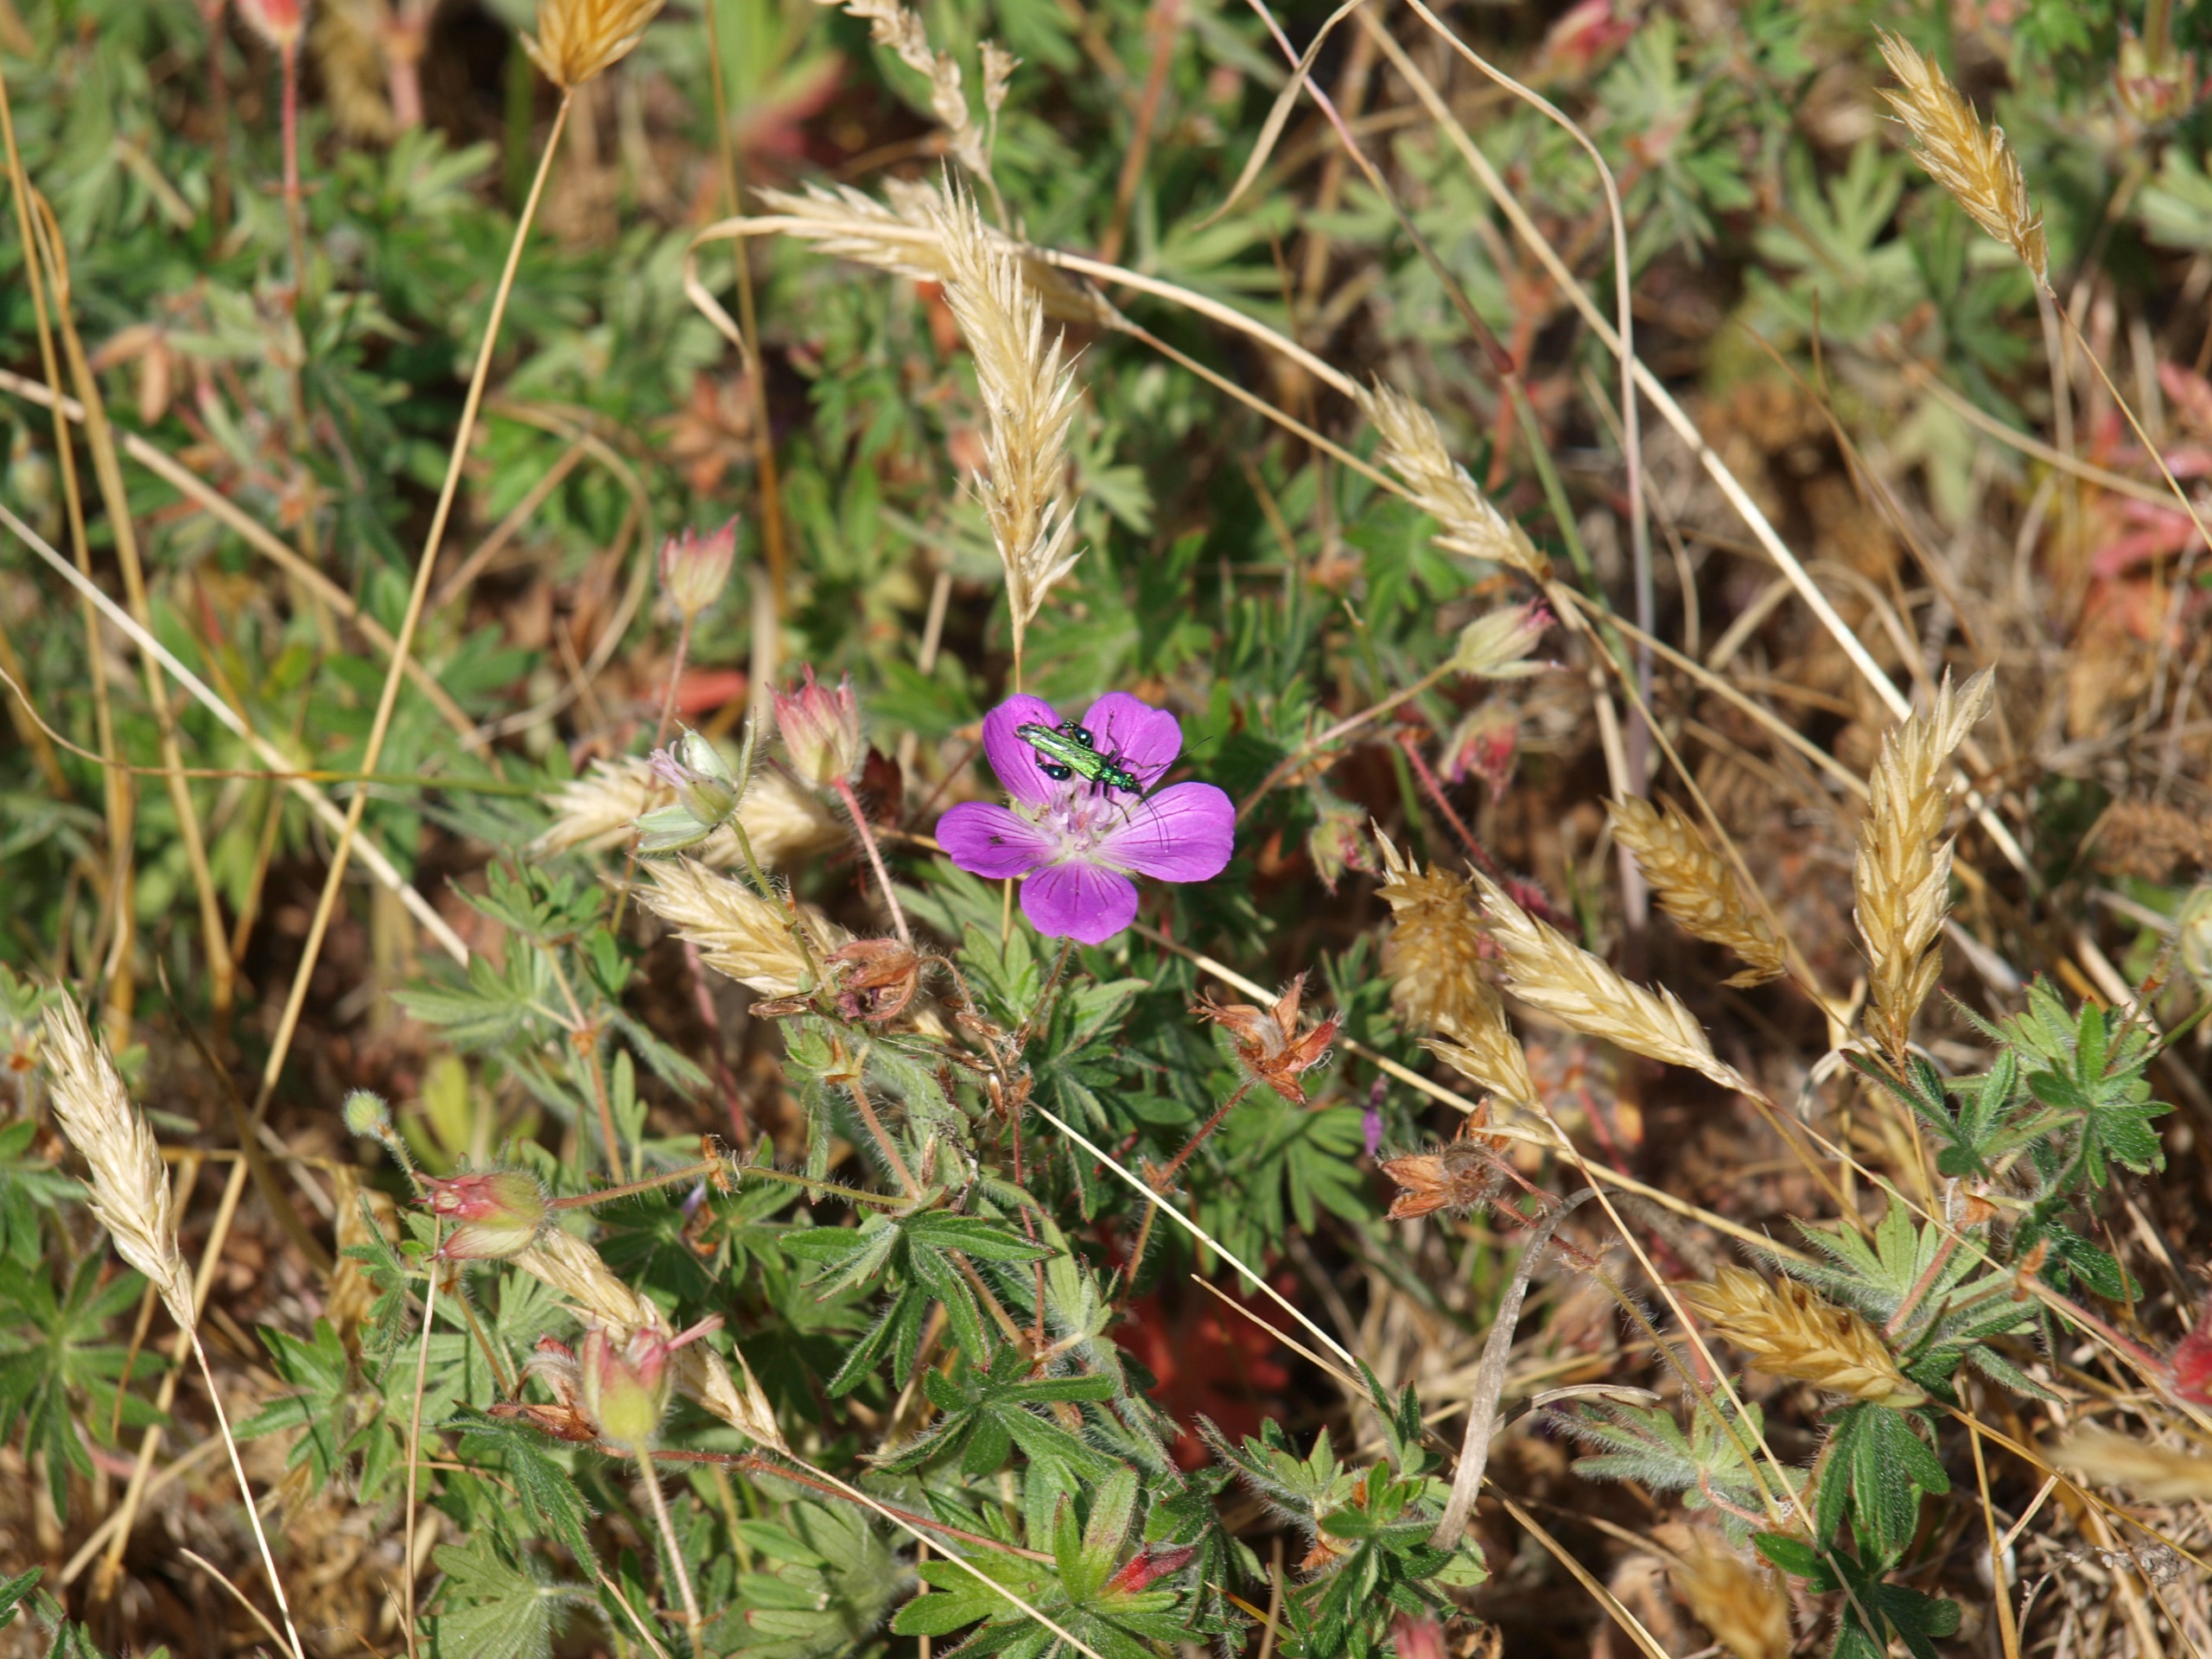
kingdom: Animalia
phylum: Arthropoda
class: Insecta
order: Coleoptera
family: Oedemeridae
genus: Oedemera
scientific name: Oedemera nobilis
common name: Tyklårssolbille
